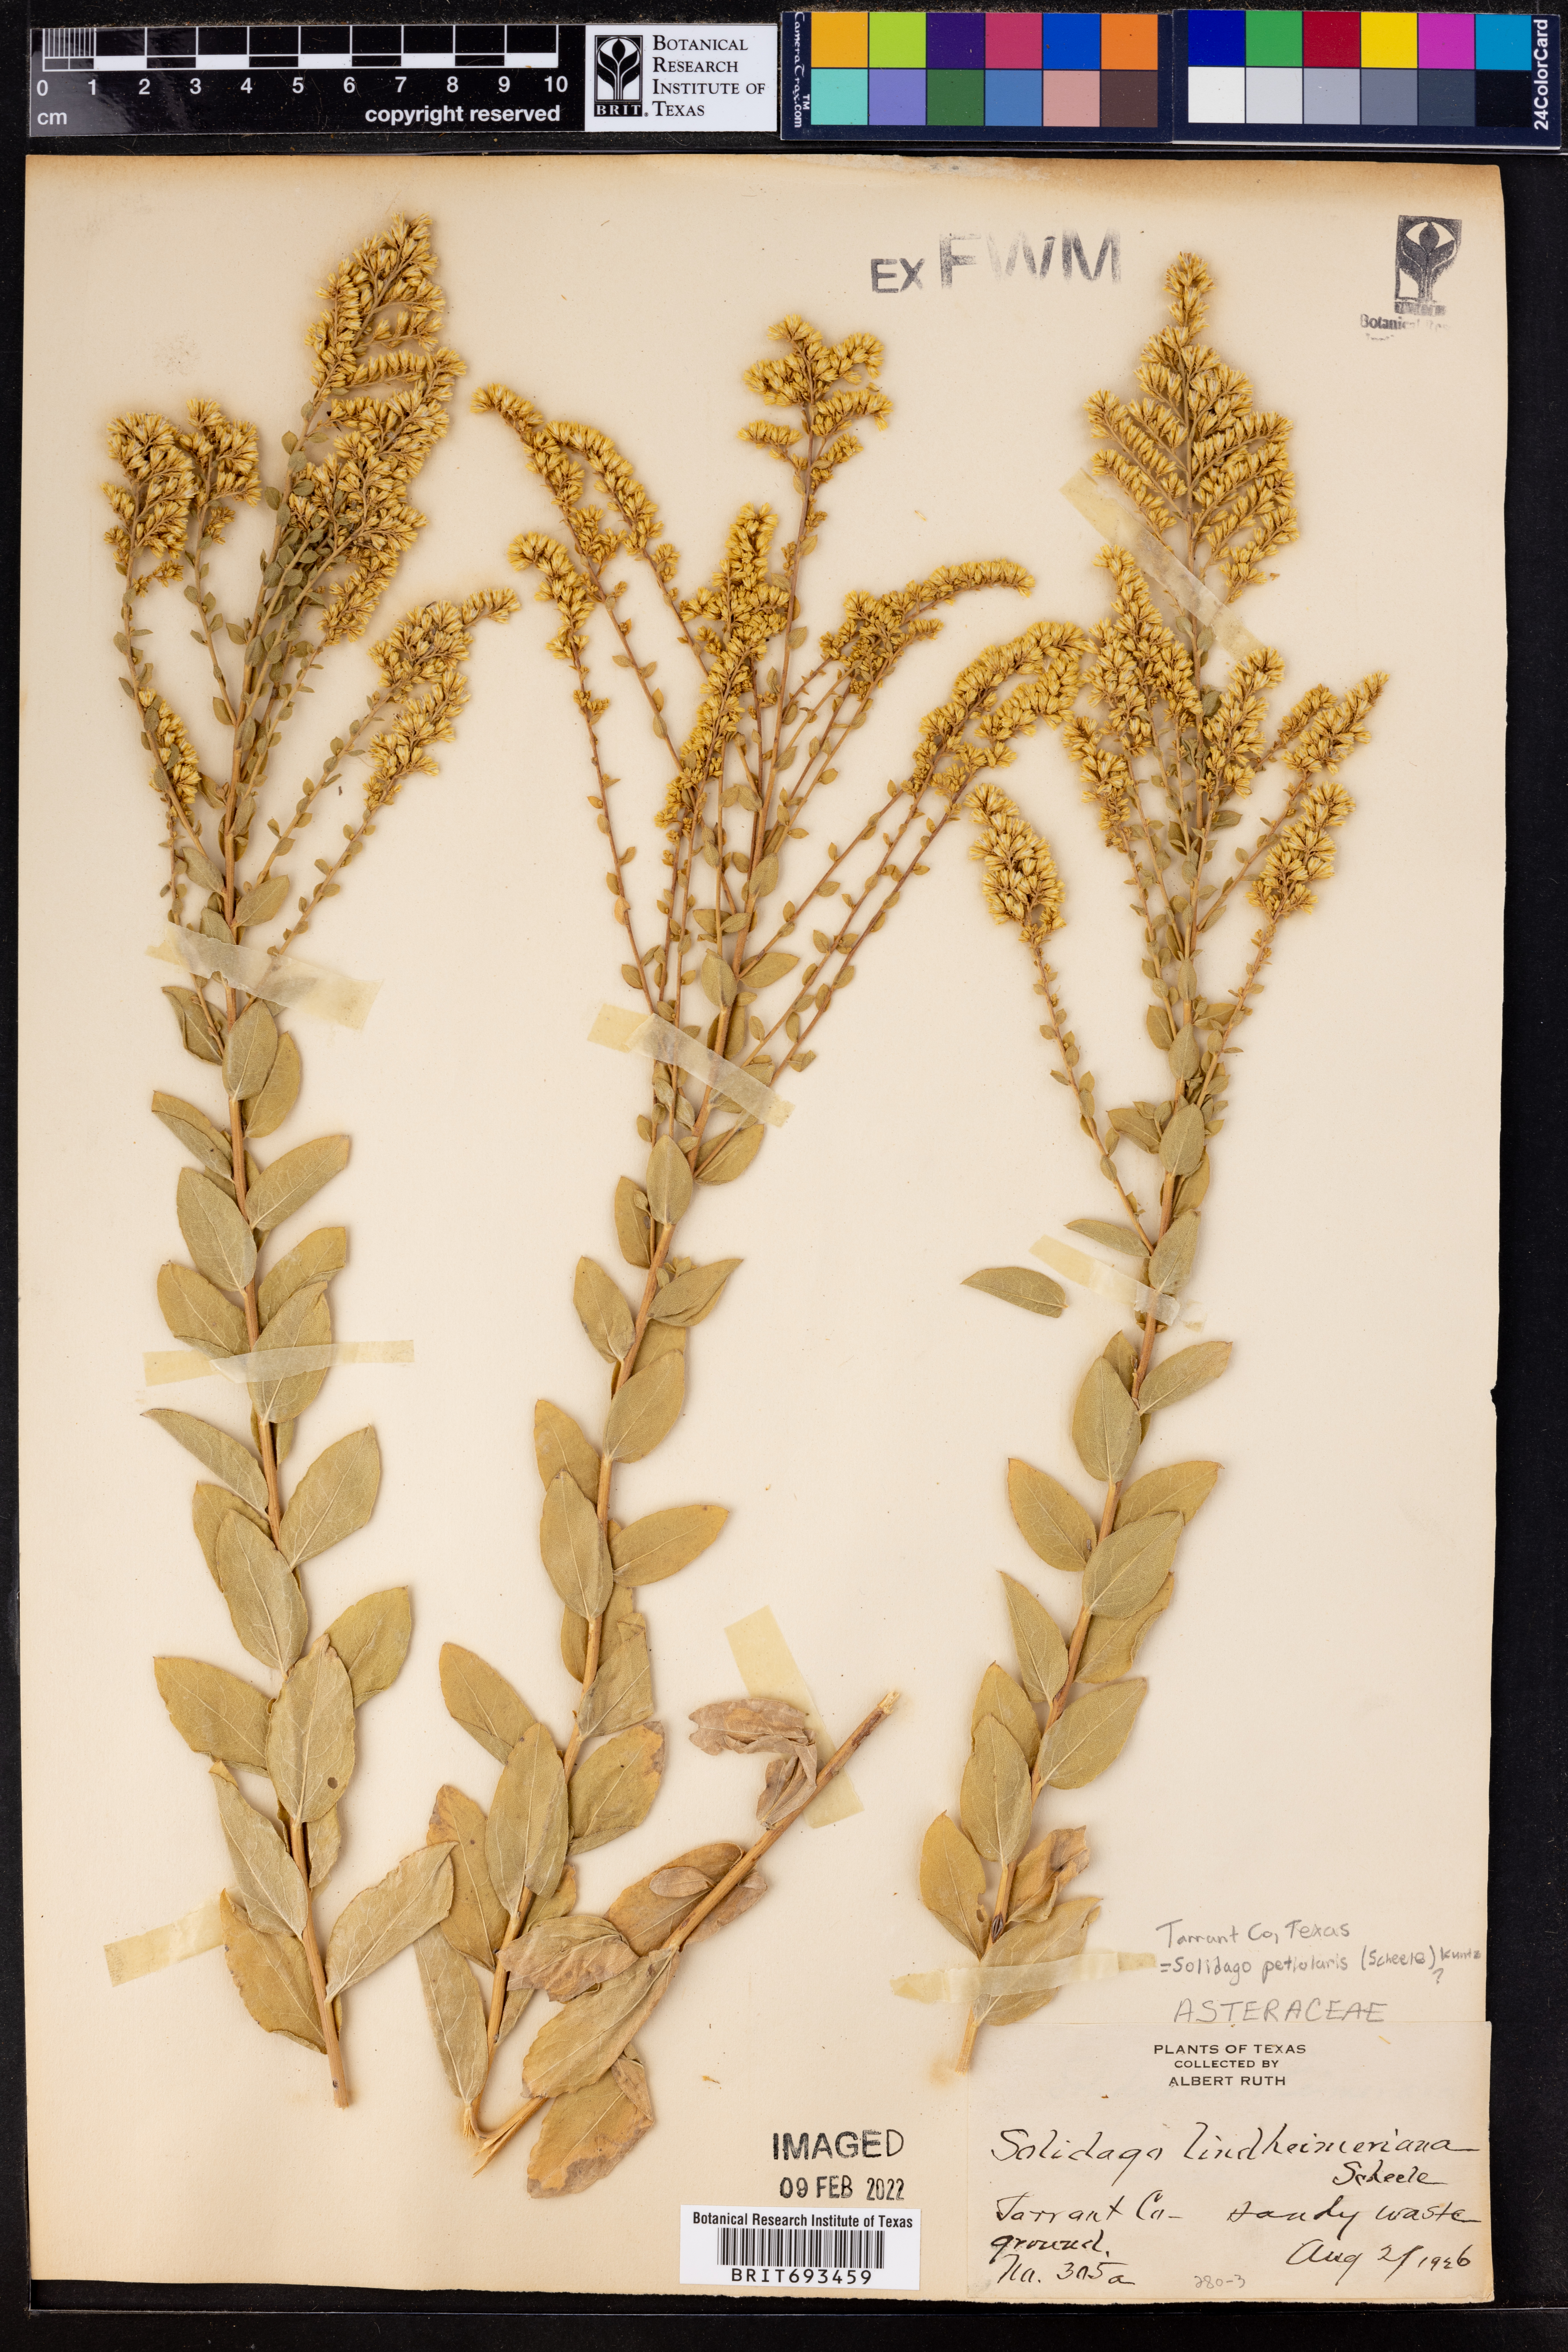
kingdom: Plantae
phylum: Tracheophyta
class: Magnoliopsida
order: Asterales
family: Asteraceae
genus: Solidago
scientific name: Solidago petiolaris
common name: Downy ragged goldenrod
